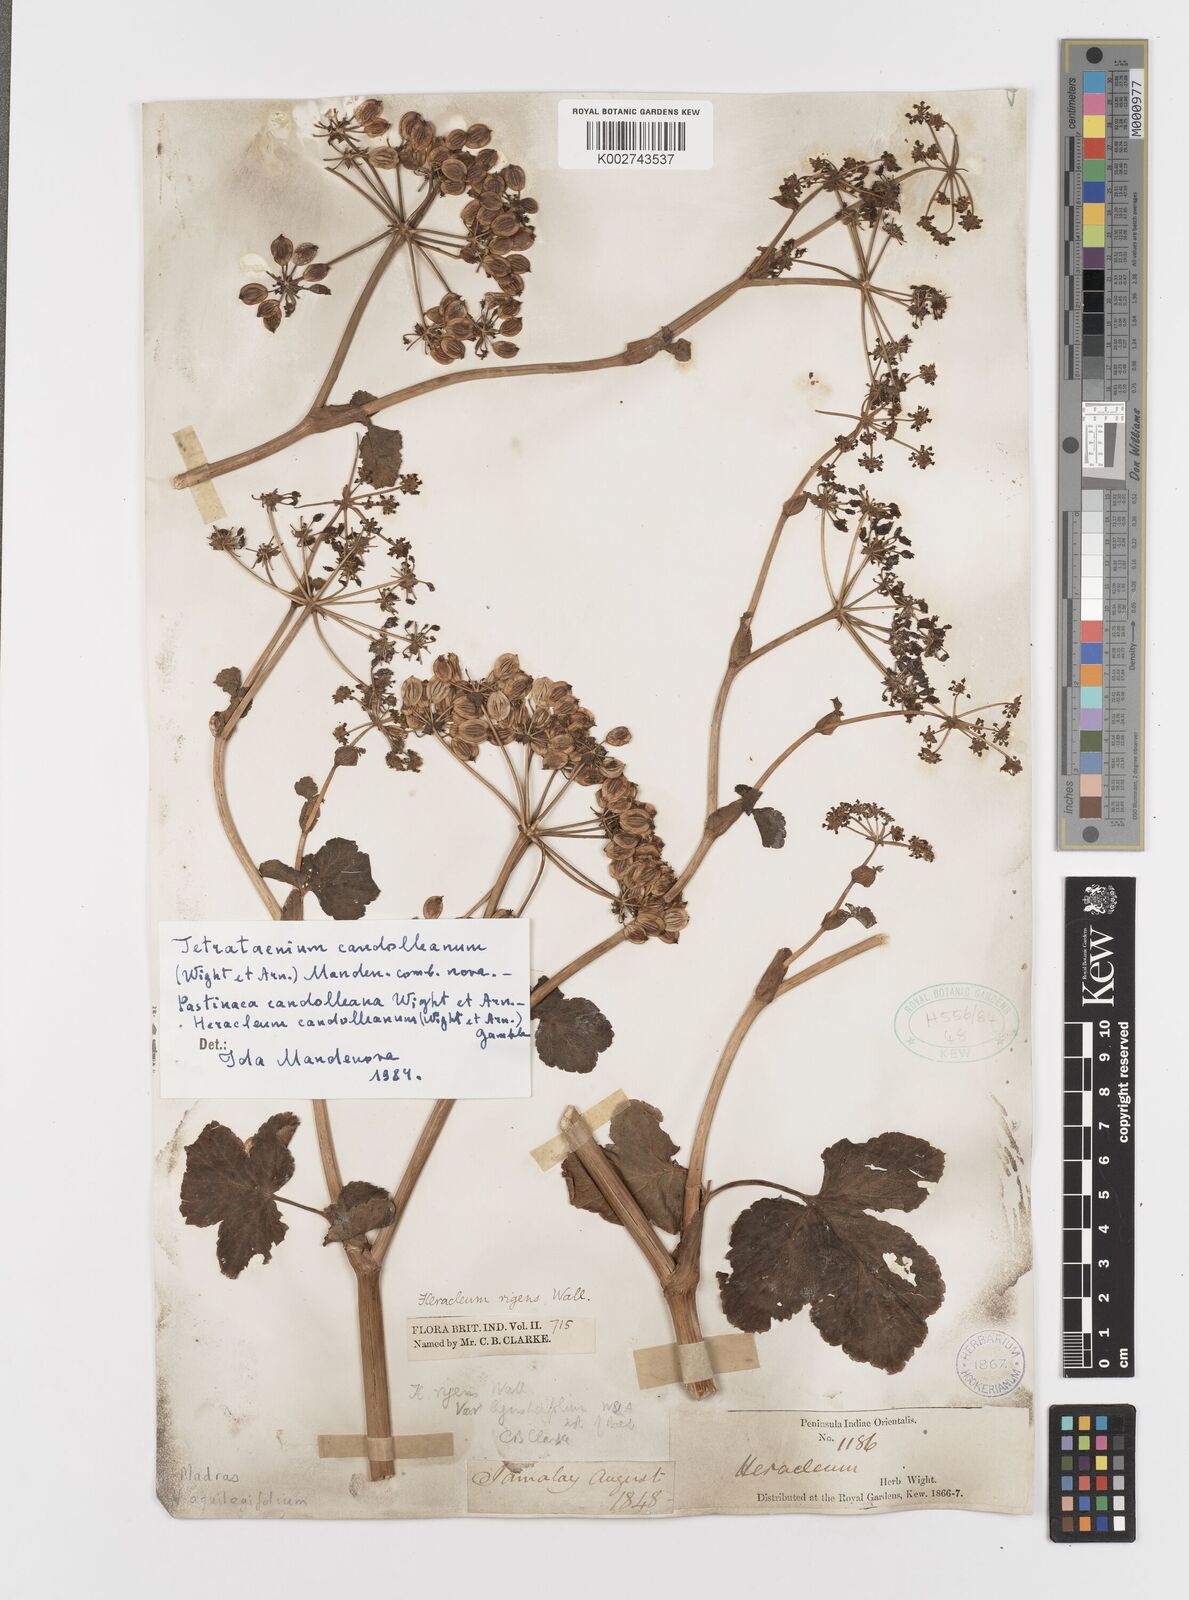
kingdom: Plantae
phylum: Tracheophyta
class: Magnoliopsida
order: Apiales
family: Apiaceae
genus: Tetrataenium
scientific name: Tetrataenium rigens
